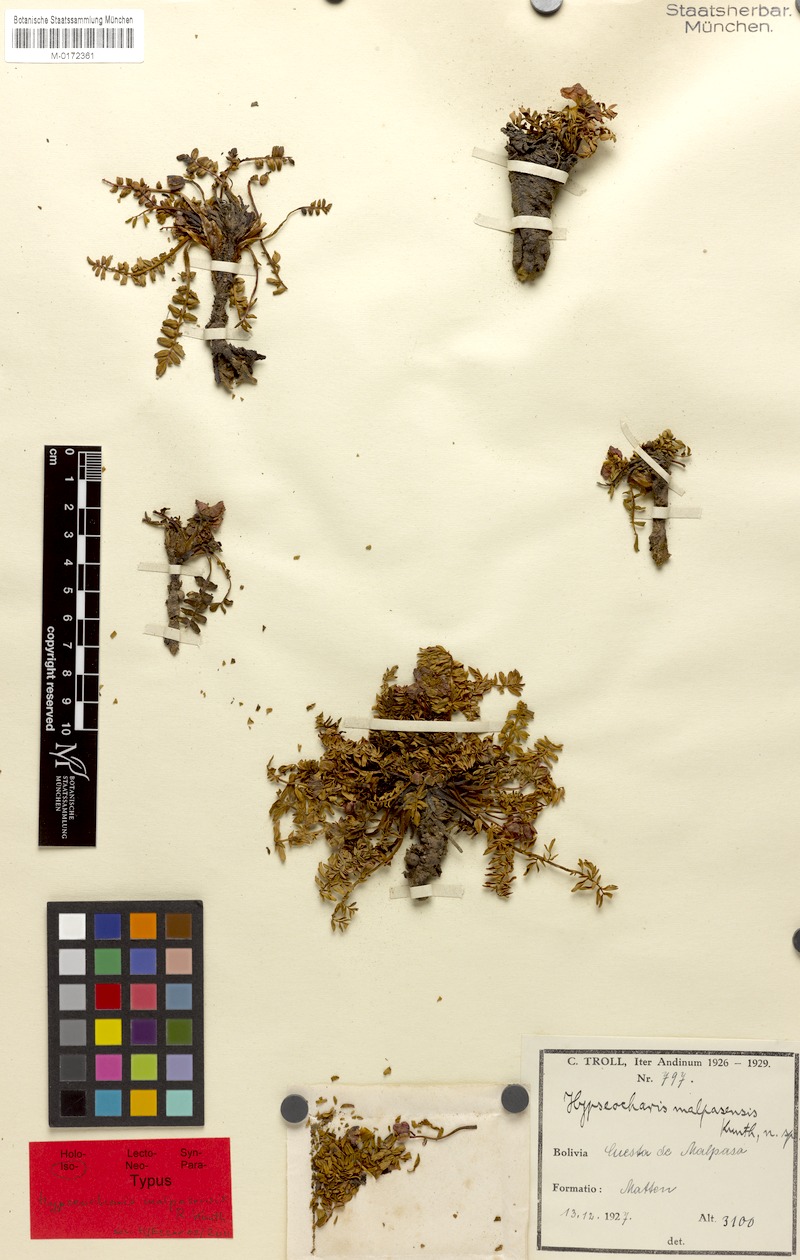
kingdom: Plantae
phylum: Tracheophyta
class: Magnoliopsida
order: Geraniales
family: Hypseocharitaceae
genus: Hypseocharis
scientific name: Hypseocharis malpasensis
